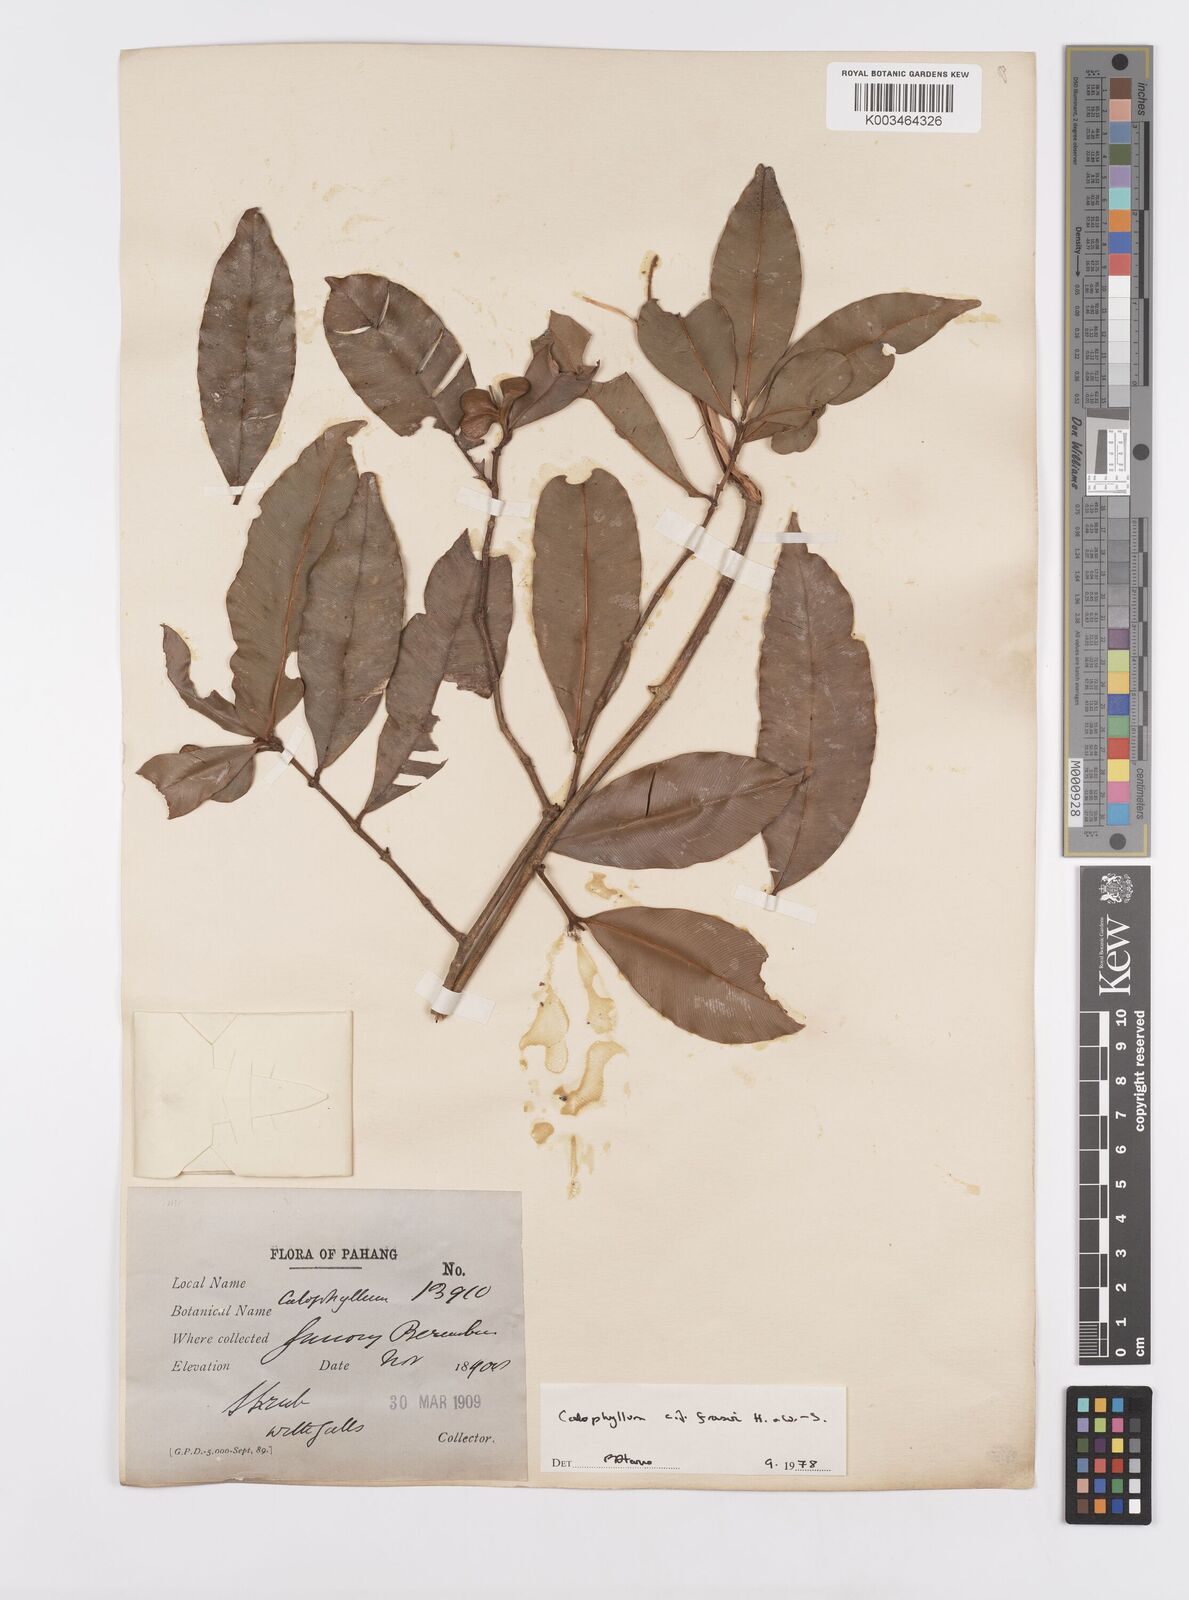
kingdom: Plantae
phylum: Tracheophyta
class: Magnoliopsida
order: Malpighiales
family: Calophyllaceae
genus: Calophyllum
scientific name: Calophyllum fraseri
